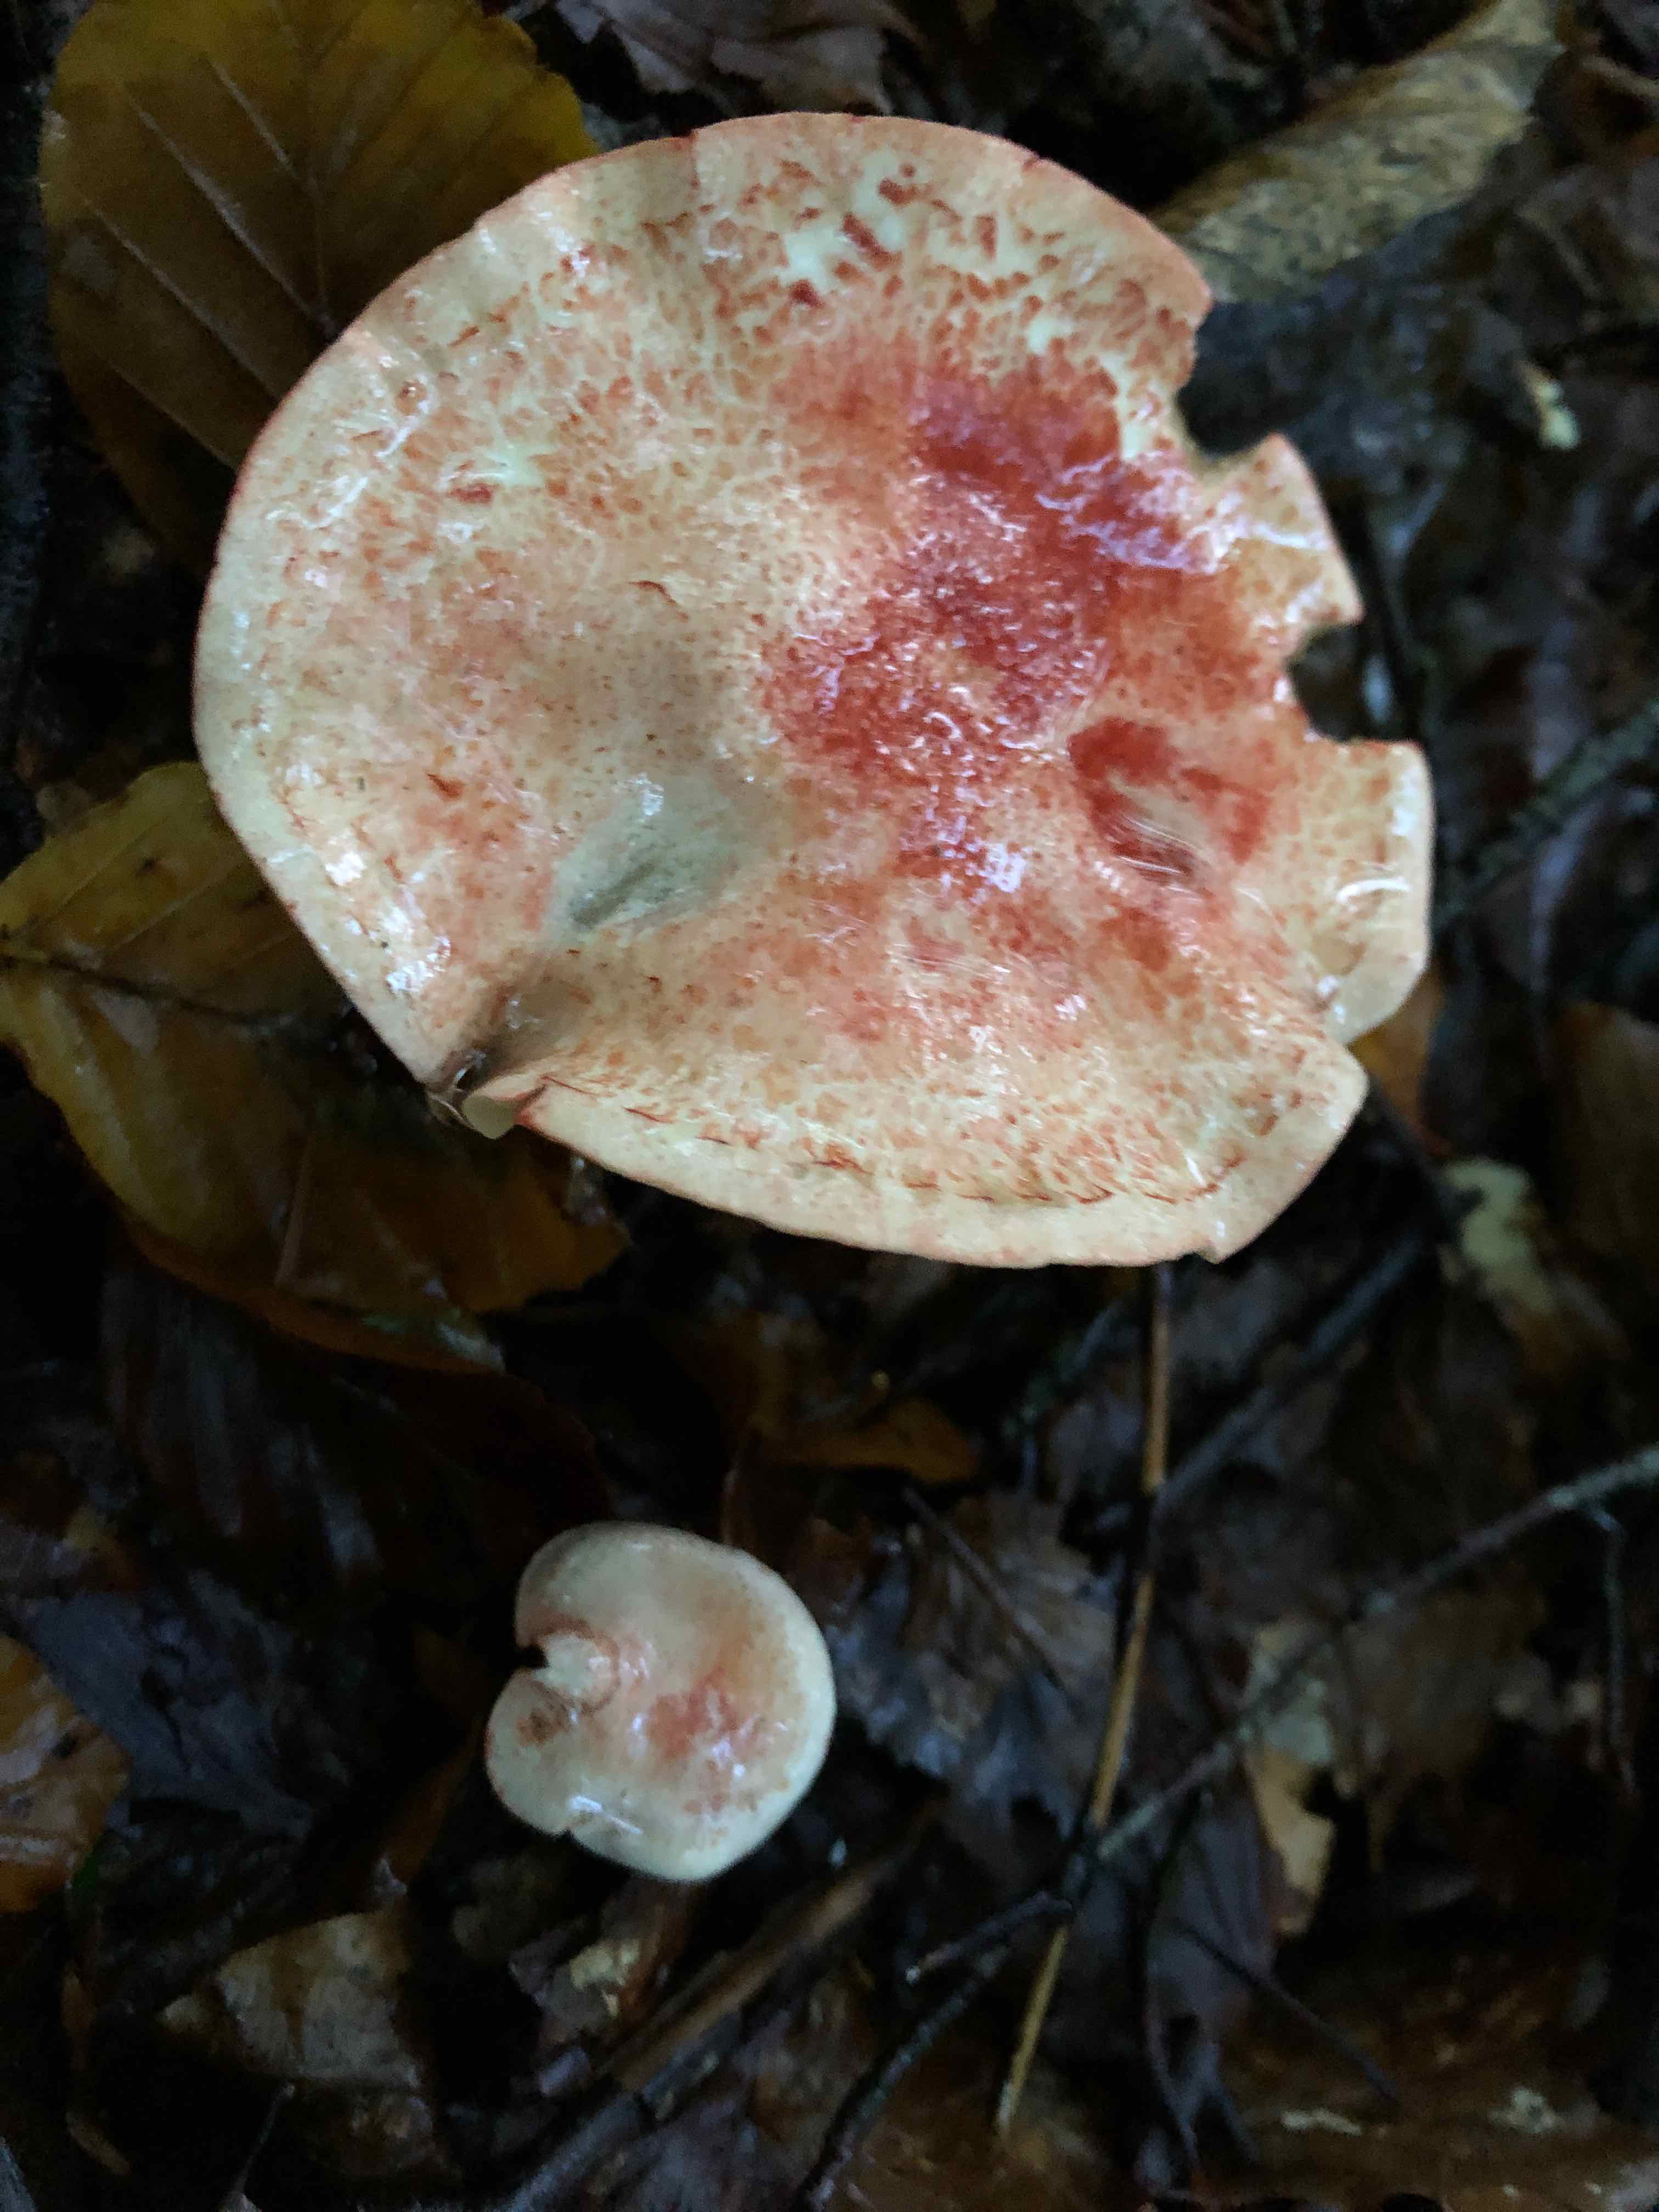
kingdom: Fungi
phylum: Basidiomycota
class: Agaricomycetes
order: Agaricales
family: Cortinariaceae
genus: Cortinarius
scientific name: Cortinarius bolaris
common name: cinnoberskællet slørhat
